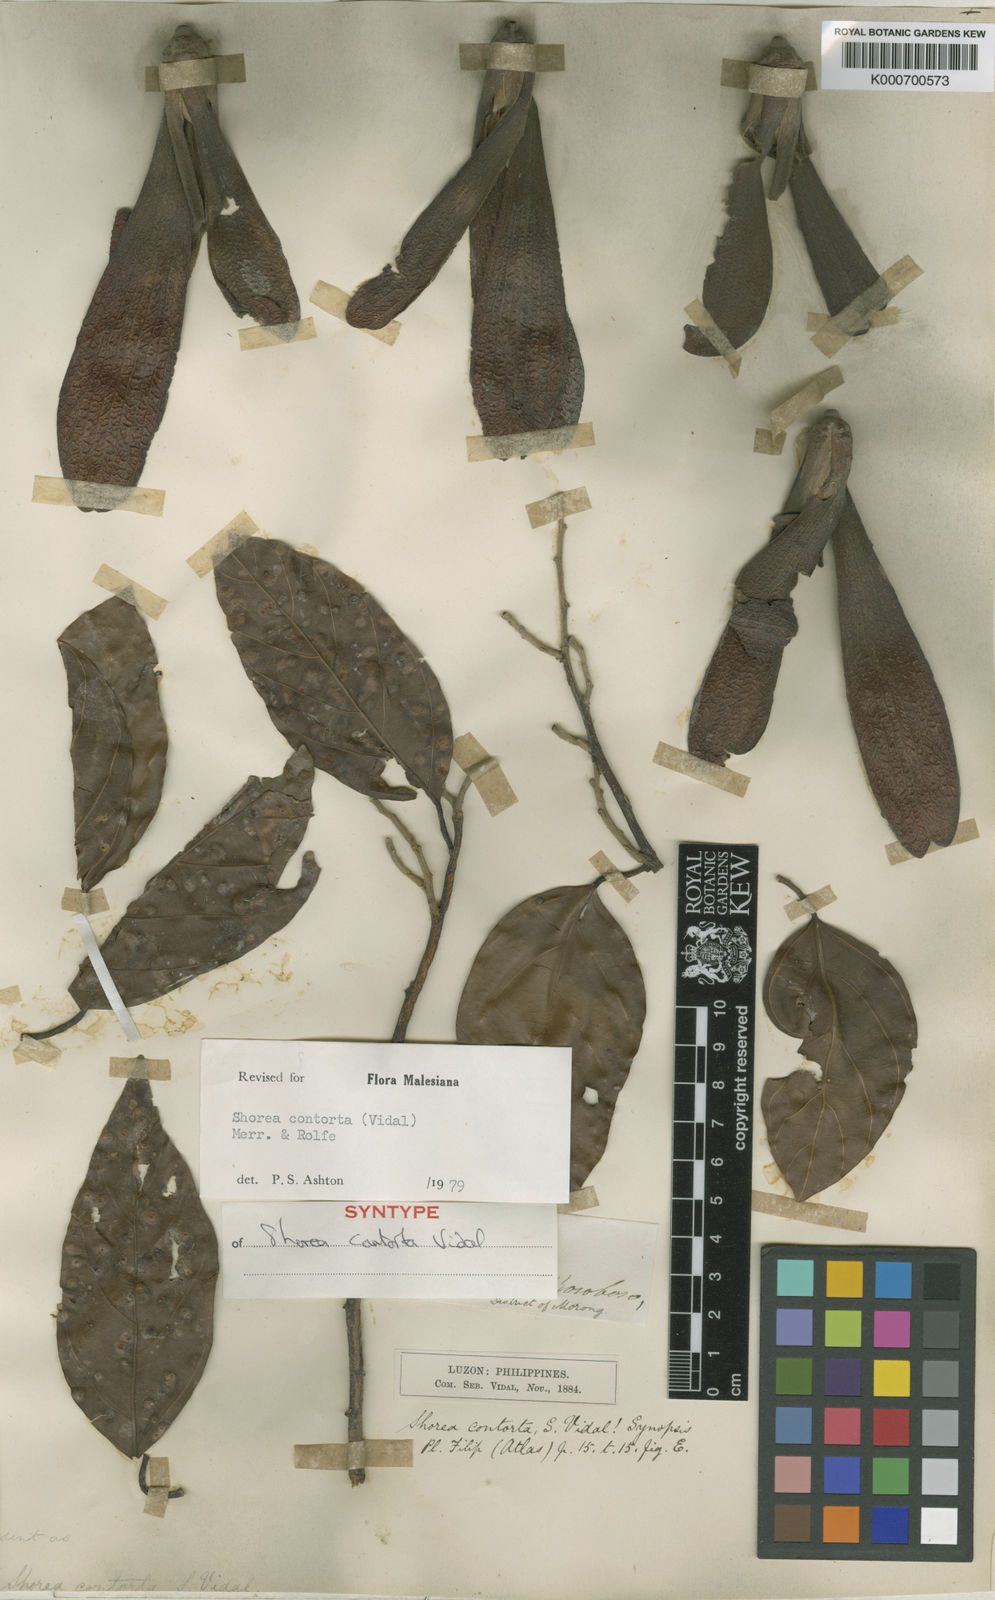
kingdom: Plantae
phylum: Tracheophyta
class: Magnoliopsida
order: Malvales
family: Dipterocarpaceae
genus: Pentacme
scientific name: Pentacme contorta
